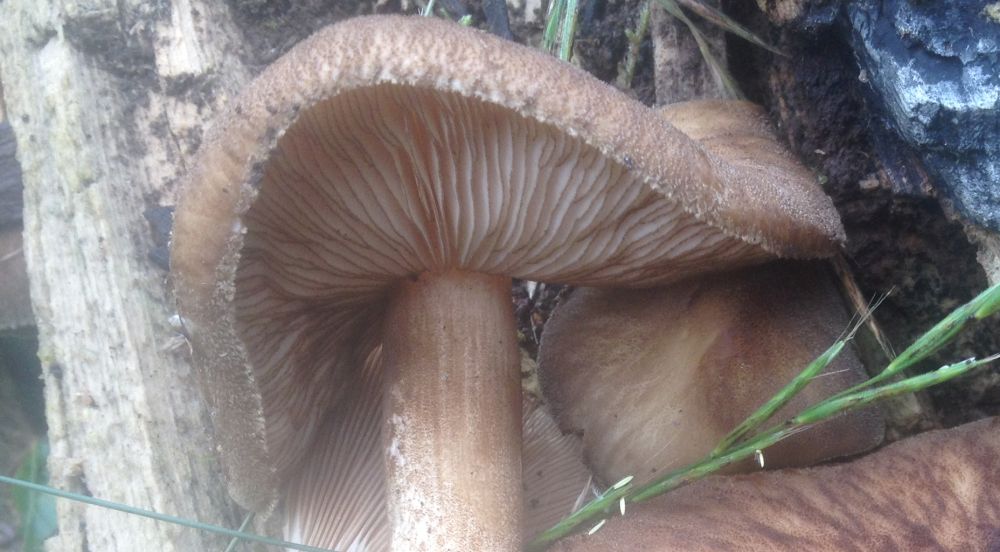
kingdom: Fungi
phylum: Basidiomycota
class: Agaricomycetes
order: Agaricales
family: Pluteaceae
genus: Pluteus
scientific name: Pluteus umbrosus
